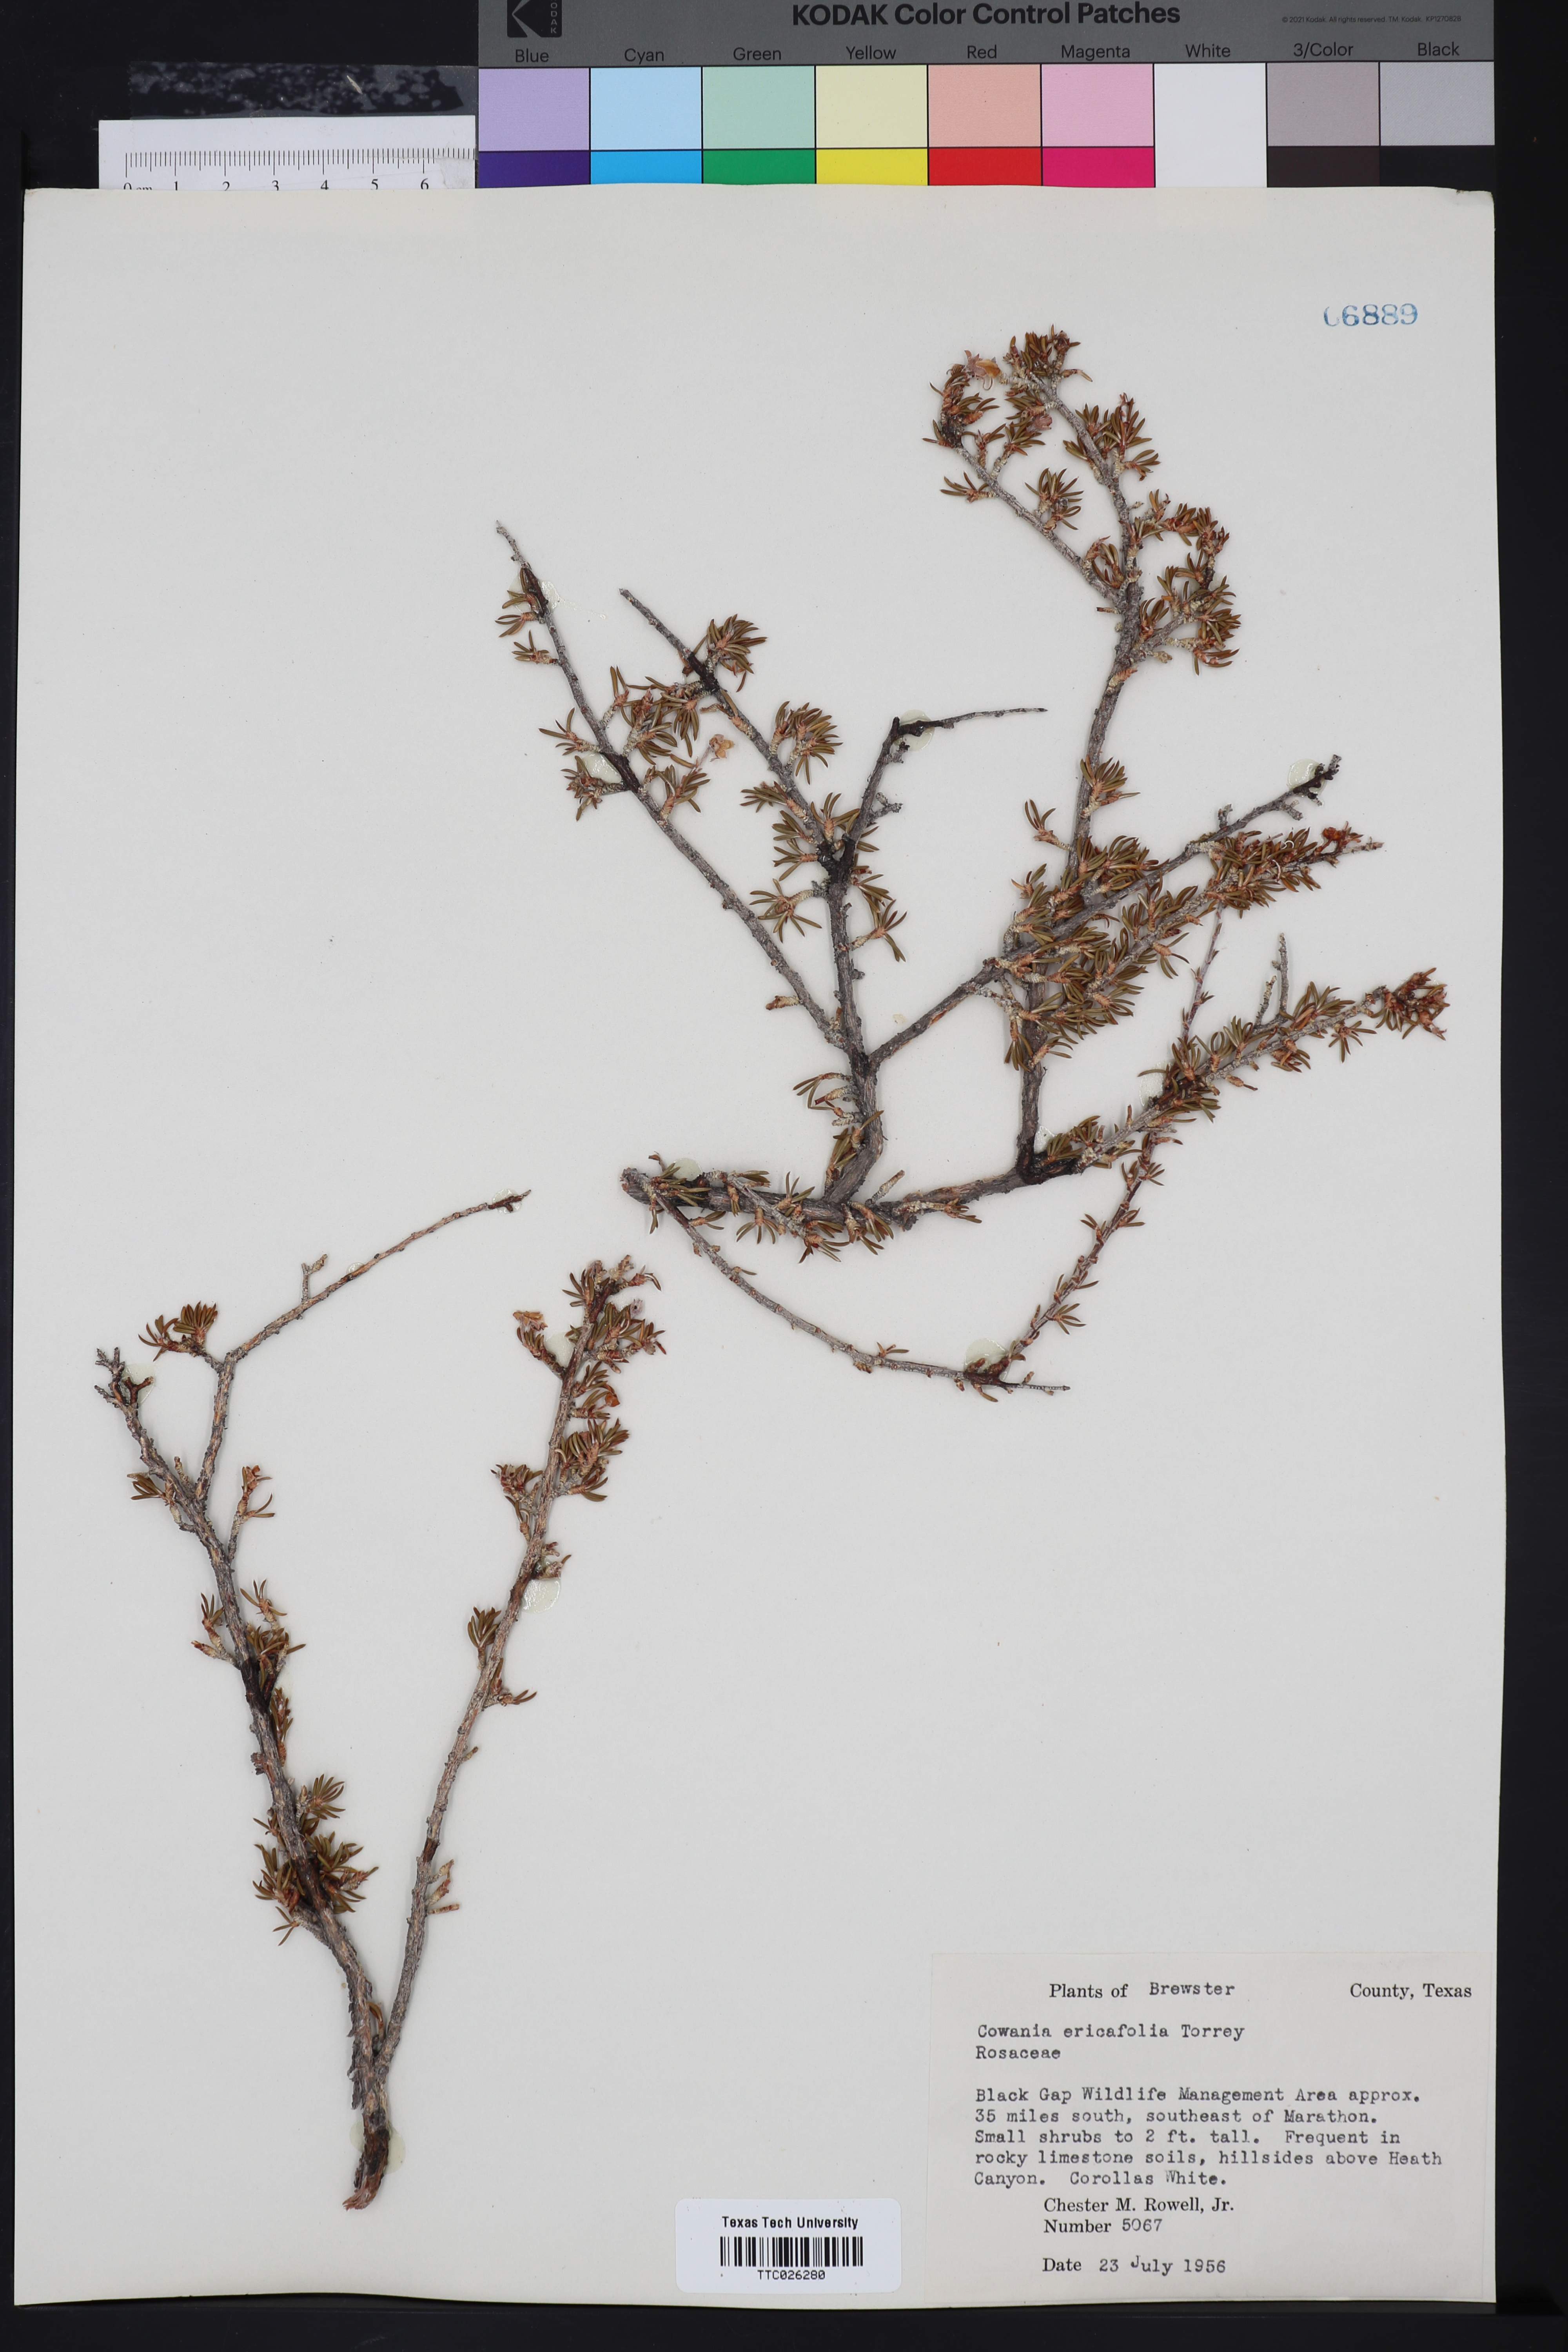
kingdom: Plantae
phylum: Tracheophyta
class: Magnoliopsida
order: Rosales
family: Rosaceae
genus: Purshia
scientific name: Purshia ericifolia
